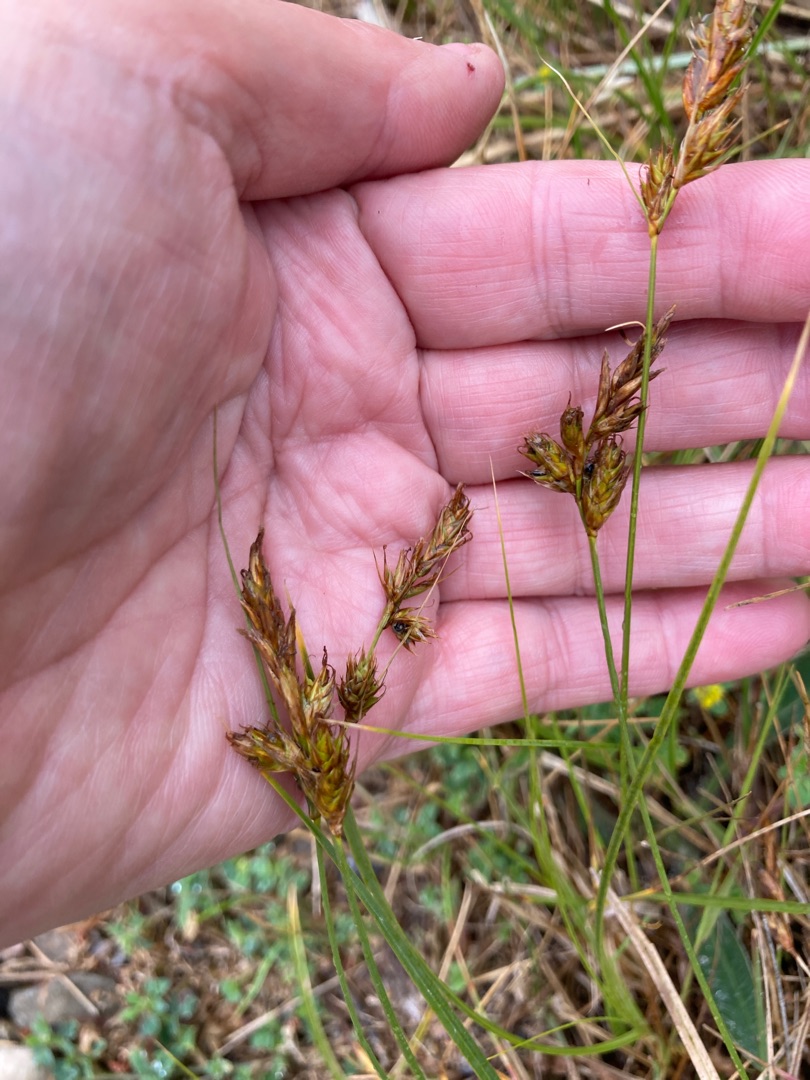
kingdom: Plantae
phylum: Tracheophyta
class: Liliopsida
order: Poales
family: Cyperaceae
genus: Carex
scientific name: Carex arenaria
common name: Sand-star
